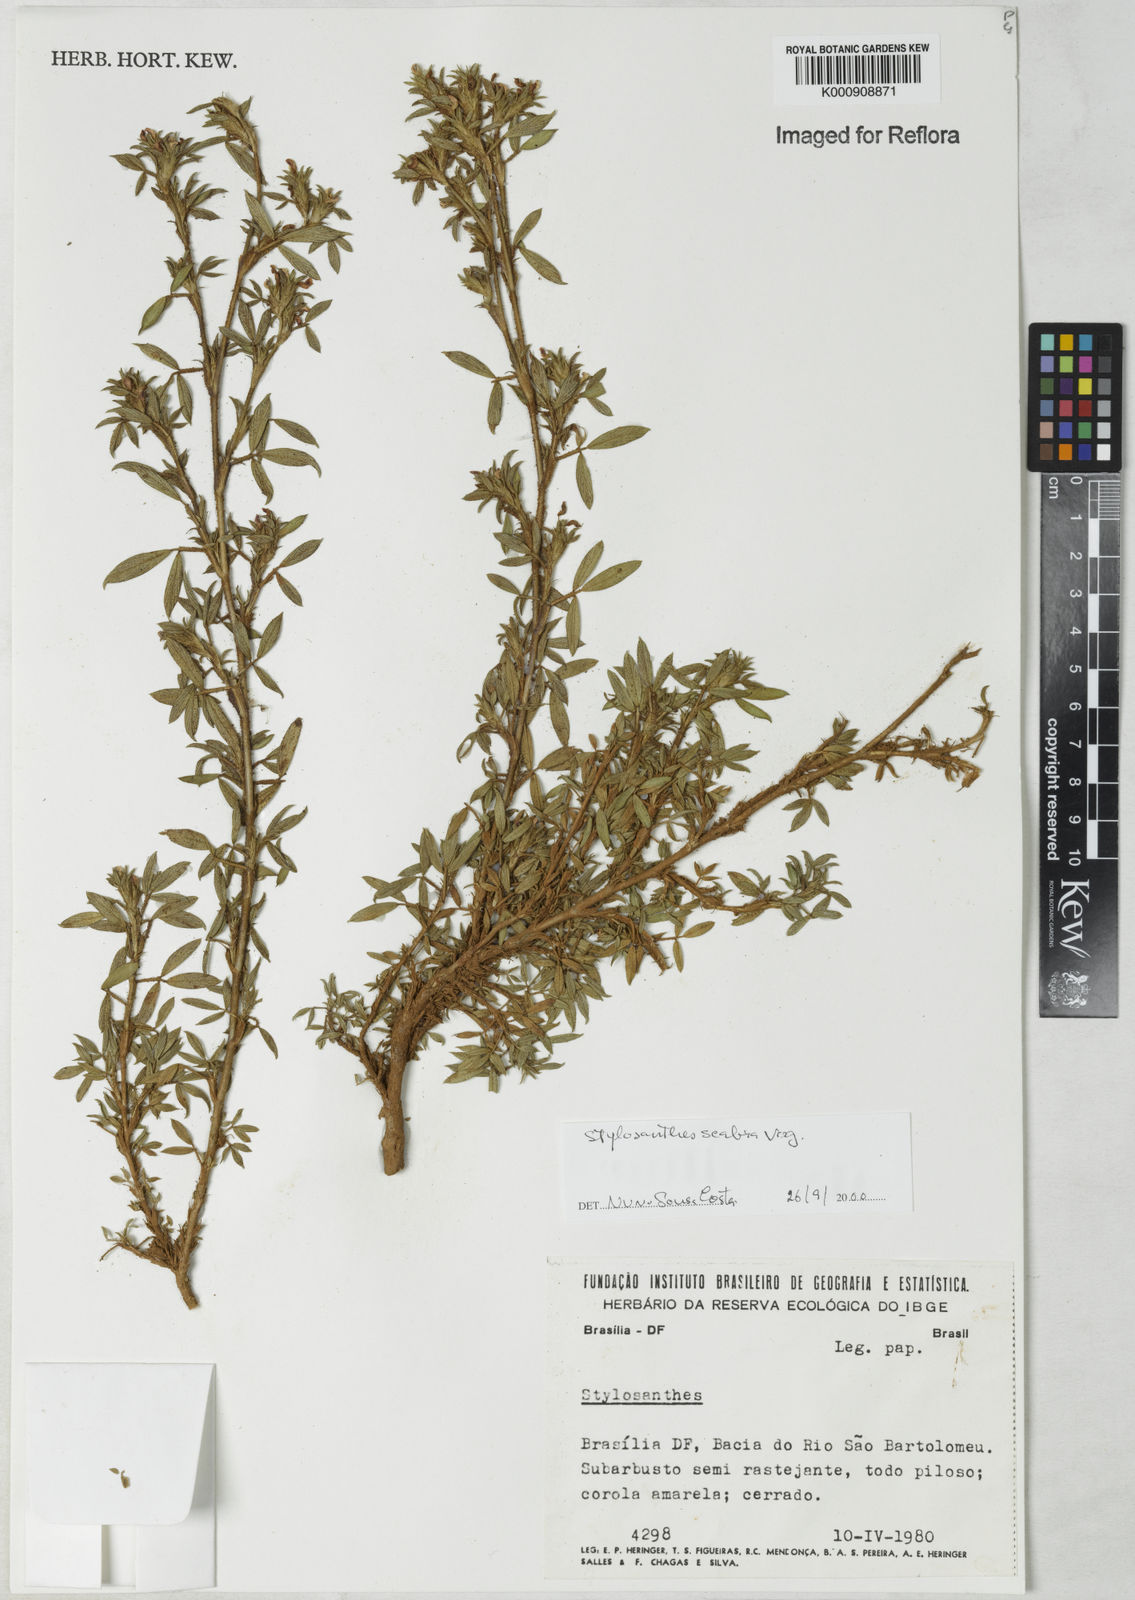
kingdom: Plantae
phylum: Tracheophyta
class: Magnoliopsida
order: Fabales
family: Fabaceae
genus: Stylosanthes
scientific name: Stylosanthes
